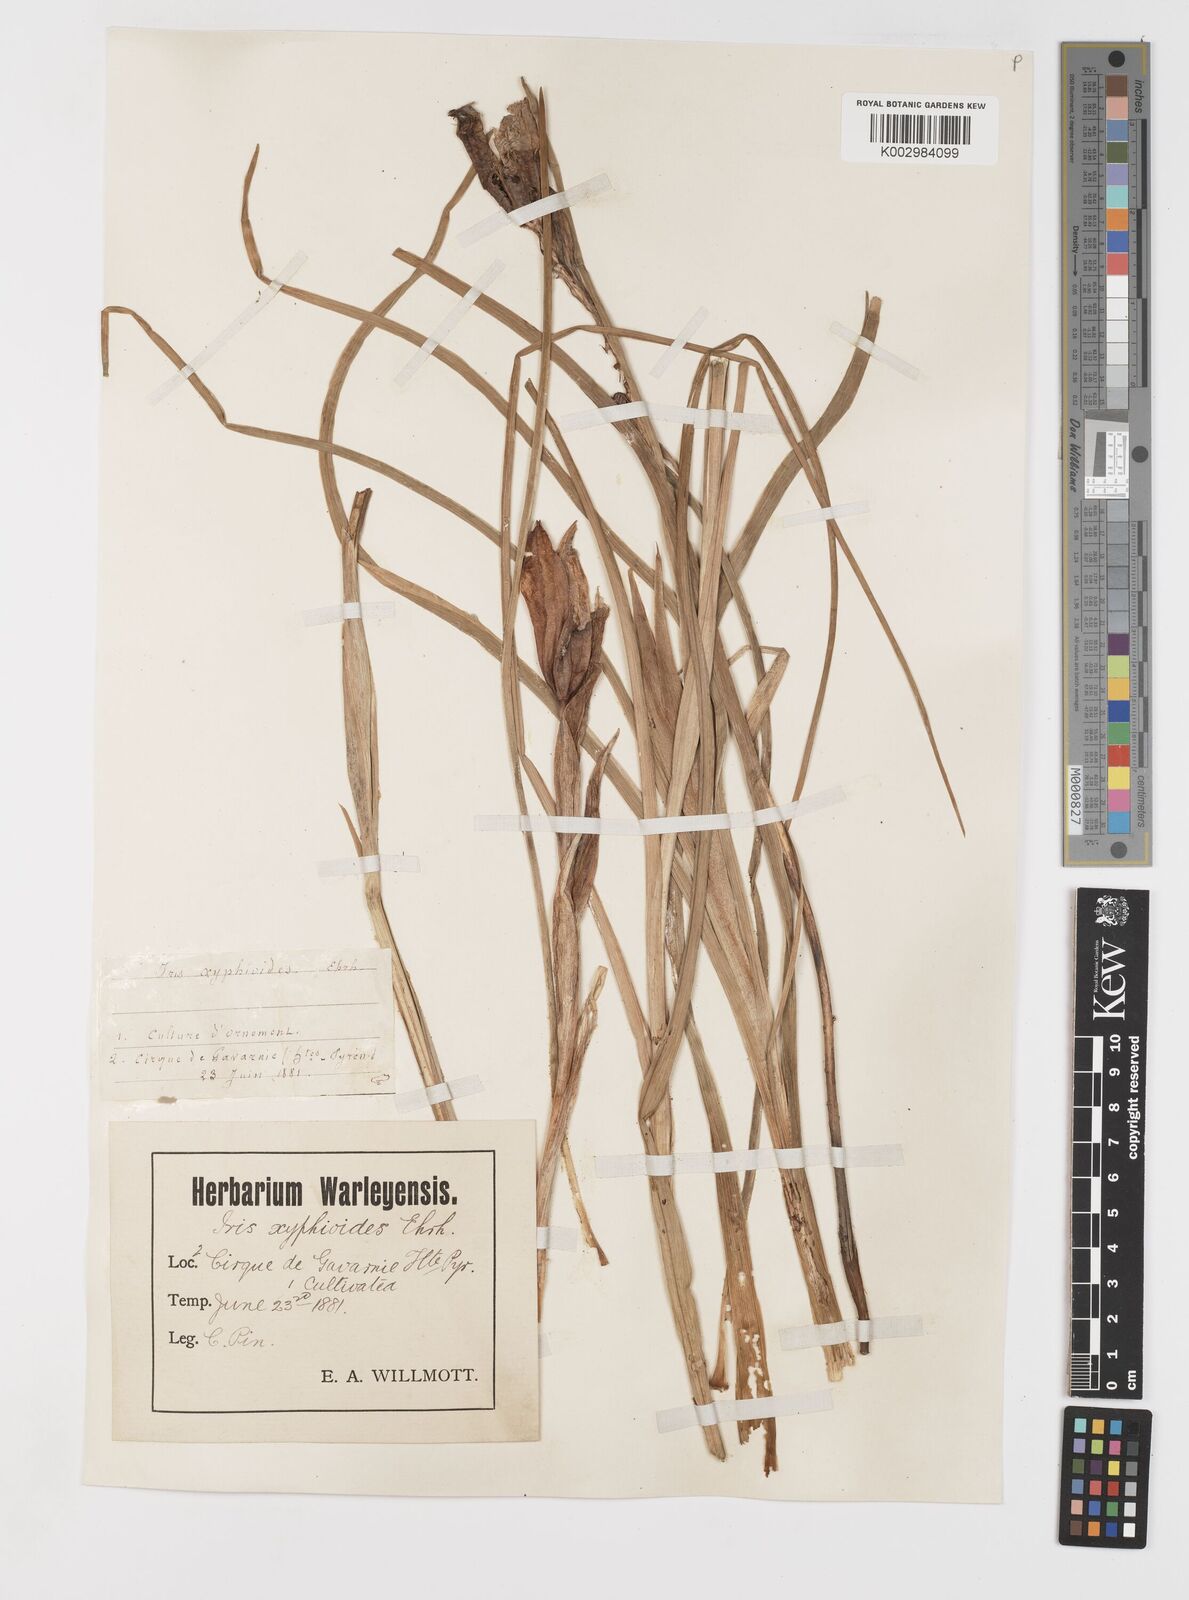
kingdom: Plantae
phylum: Tracheophyta
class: Liliopsida
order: Asparagales
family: Iridaceae
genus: Iris
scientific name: Iris jacquinii
